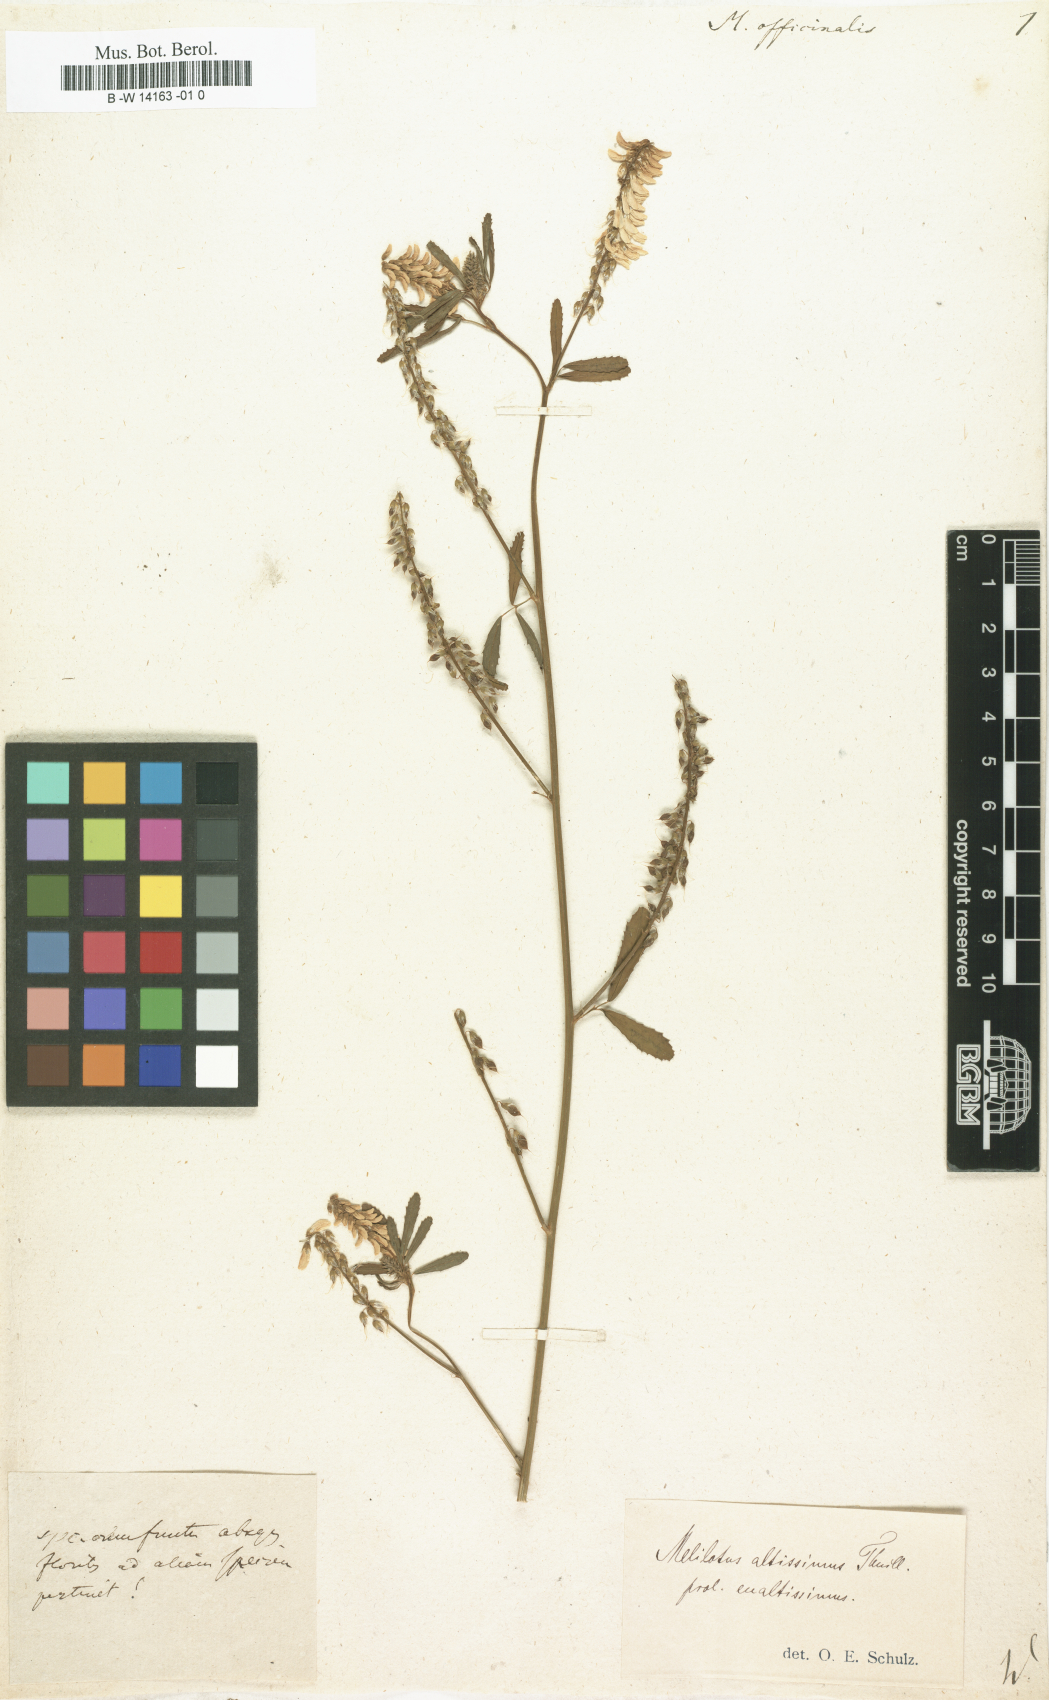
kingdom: Plantae
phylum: Tracheophyta
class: Magnoliopsida
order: Fabales
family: Fabaceae
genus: Melilotus
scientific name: Melilotus officinalis
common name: Sweetclover
